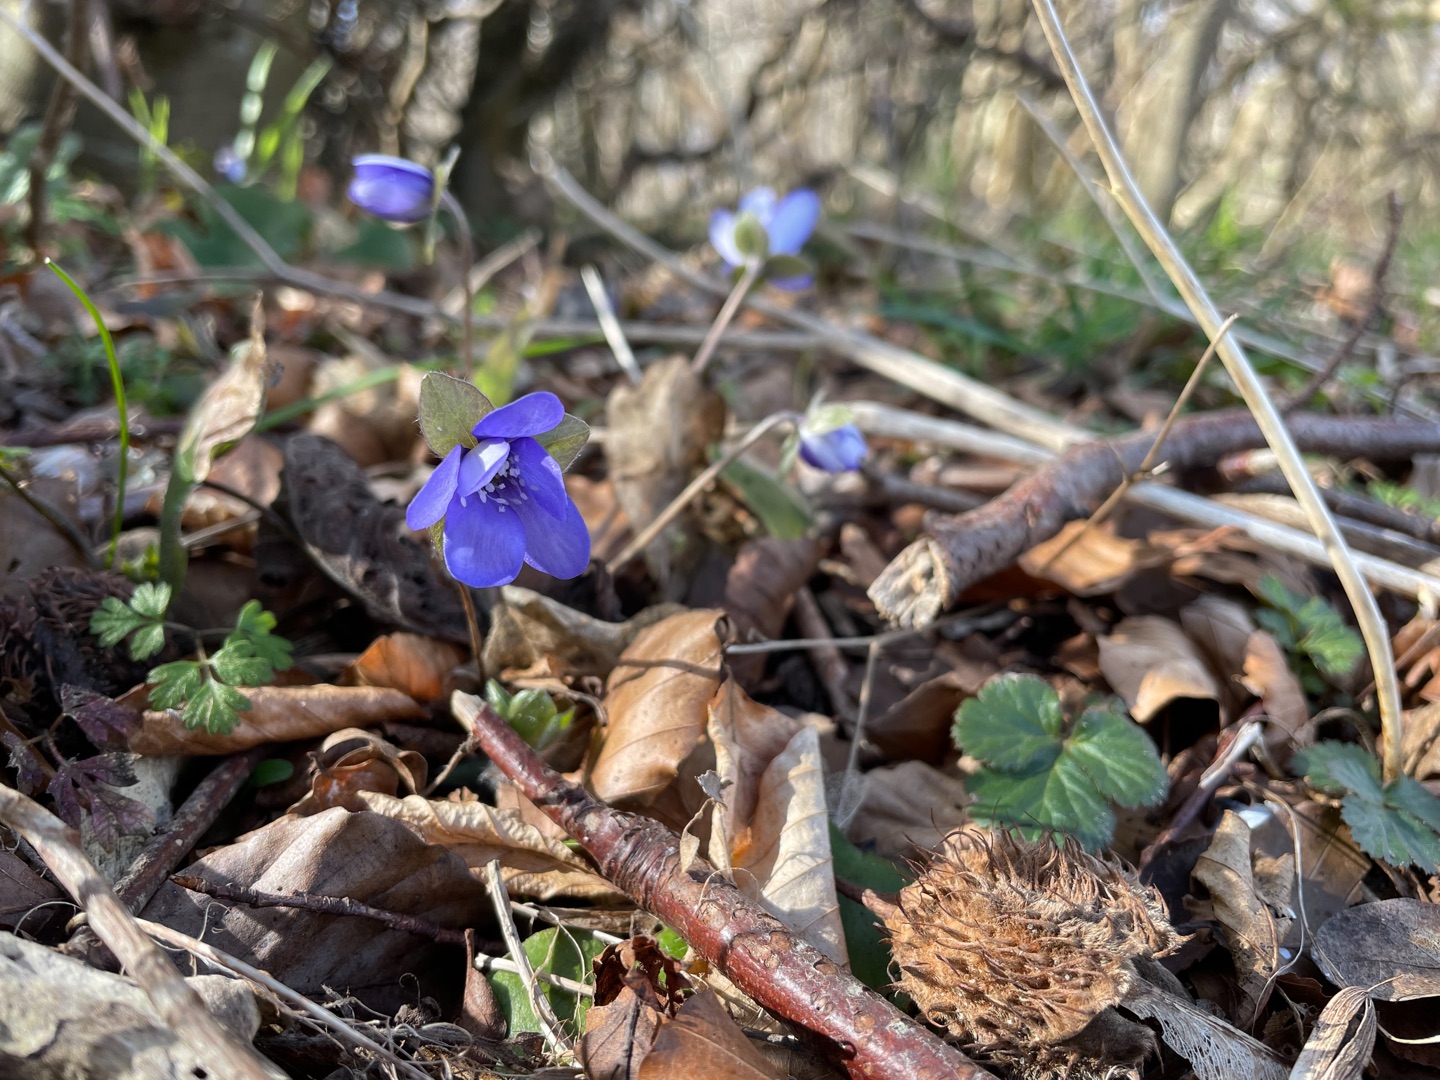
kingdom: Plantae
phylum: Tracheophyta
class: Magnoliopsida
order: Ranunculales
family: Ranunculaceae
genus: Hepatica
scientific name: Hepatica nobilis
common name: Blå anemone
